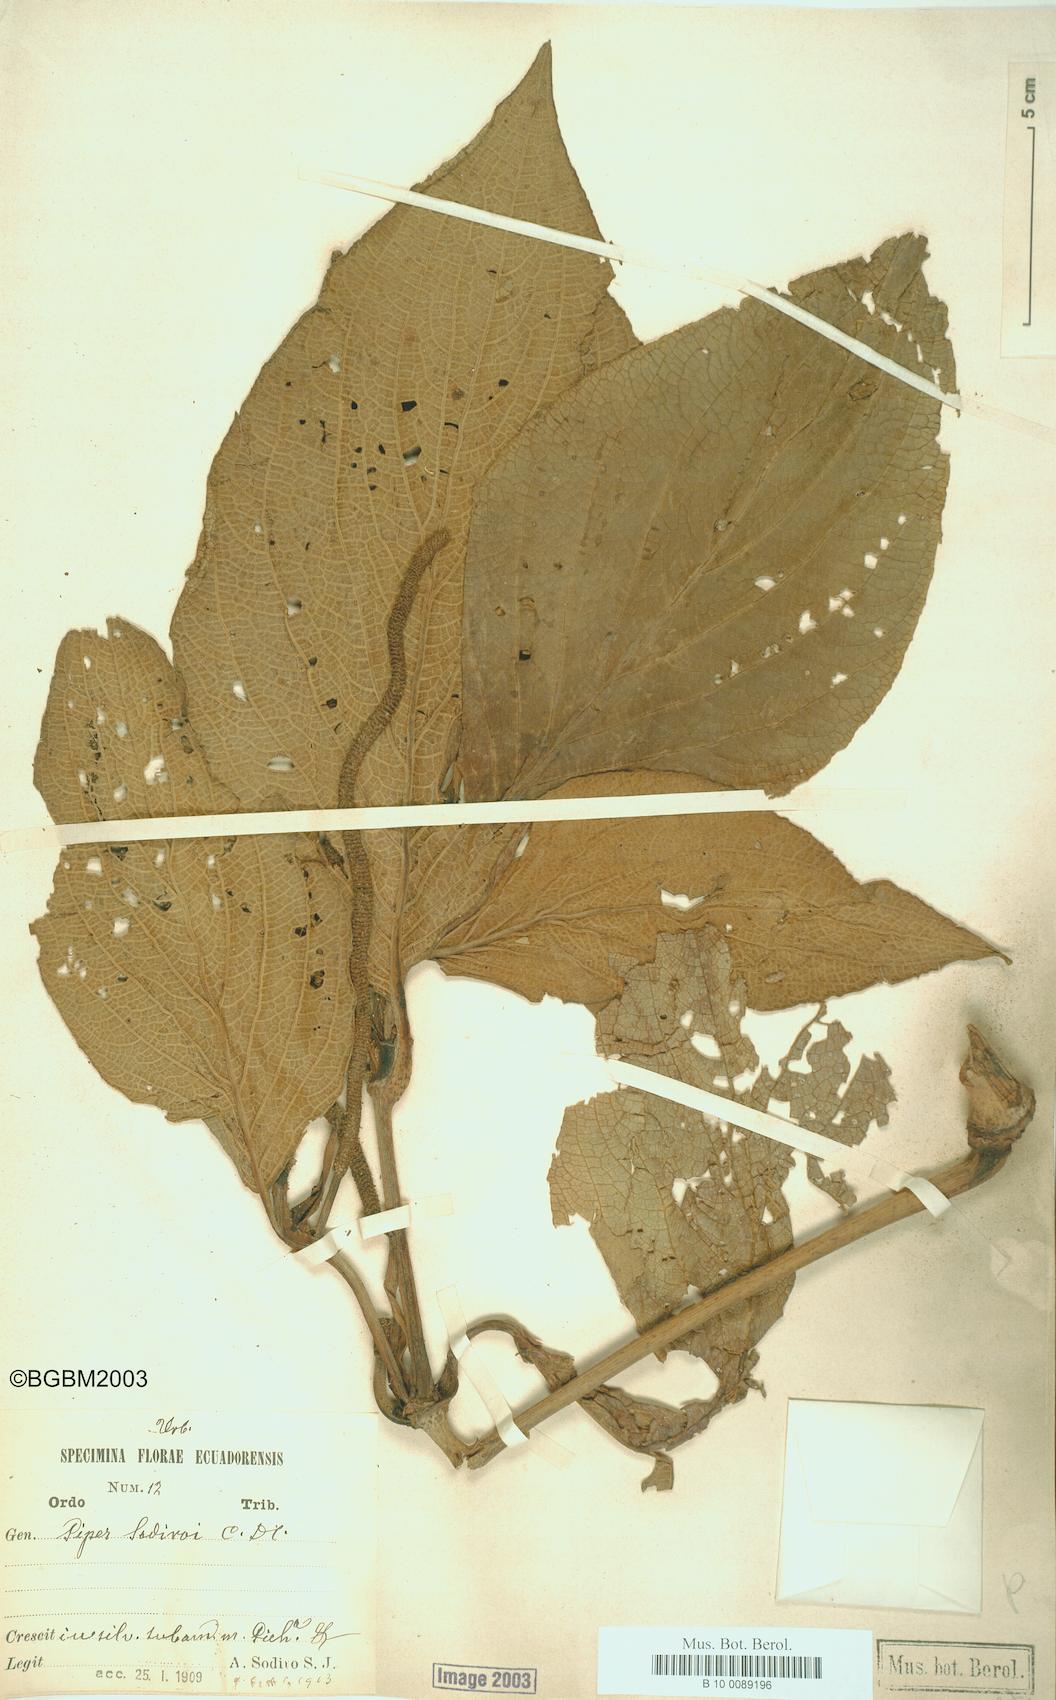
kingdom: Plantae
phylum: Tracheophyta
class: Magnoliopsida
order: Piperales
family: Piperaceae
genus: Piper
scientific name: Piper sodiroi
